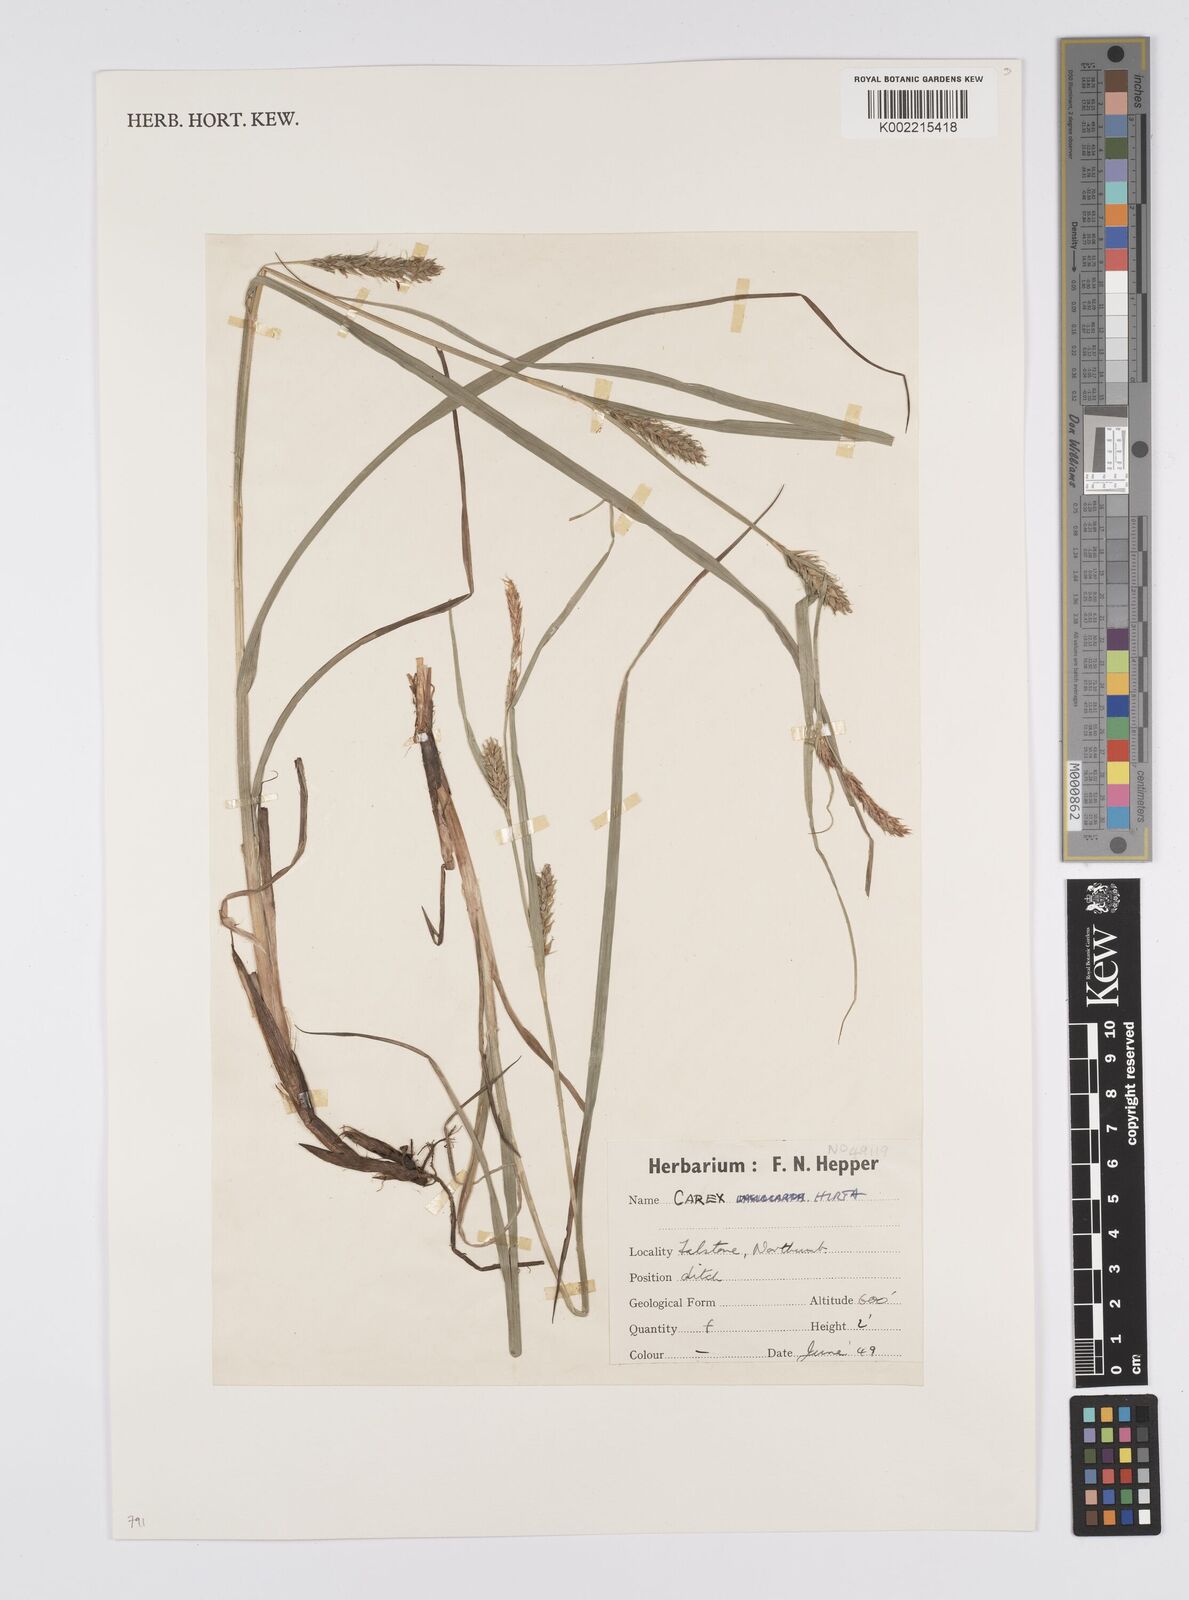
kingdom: Plantae
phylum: Tracheophyta
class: Liliopsida
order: Poales
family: Cyperaceae
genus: Carex
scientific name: Carex hirta
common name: Hairy sedge
